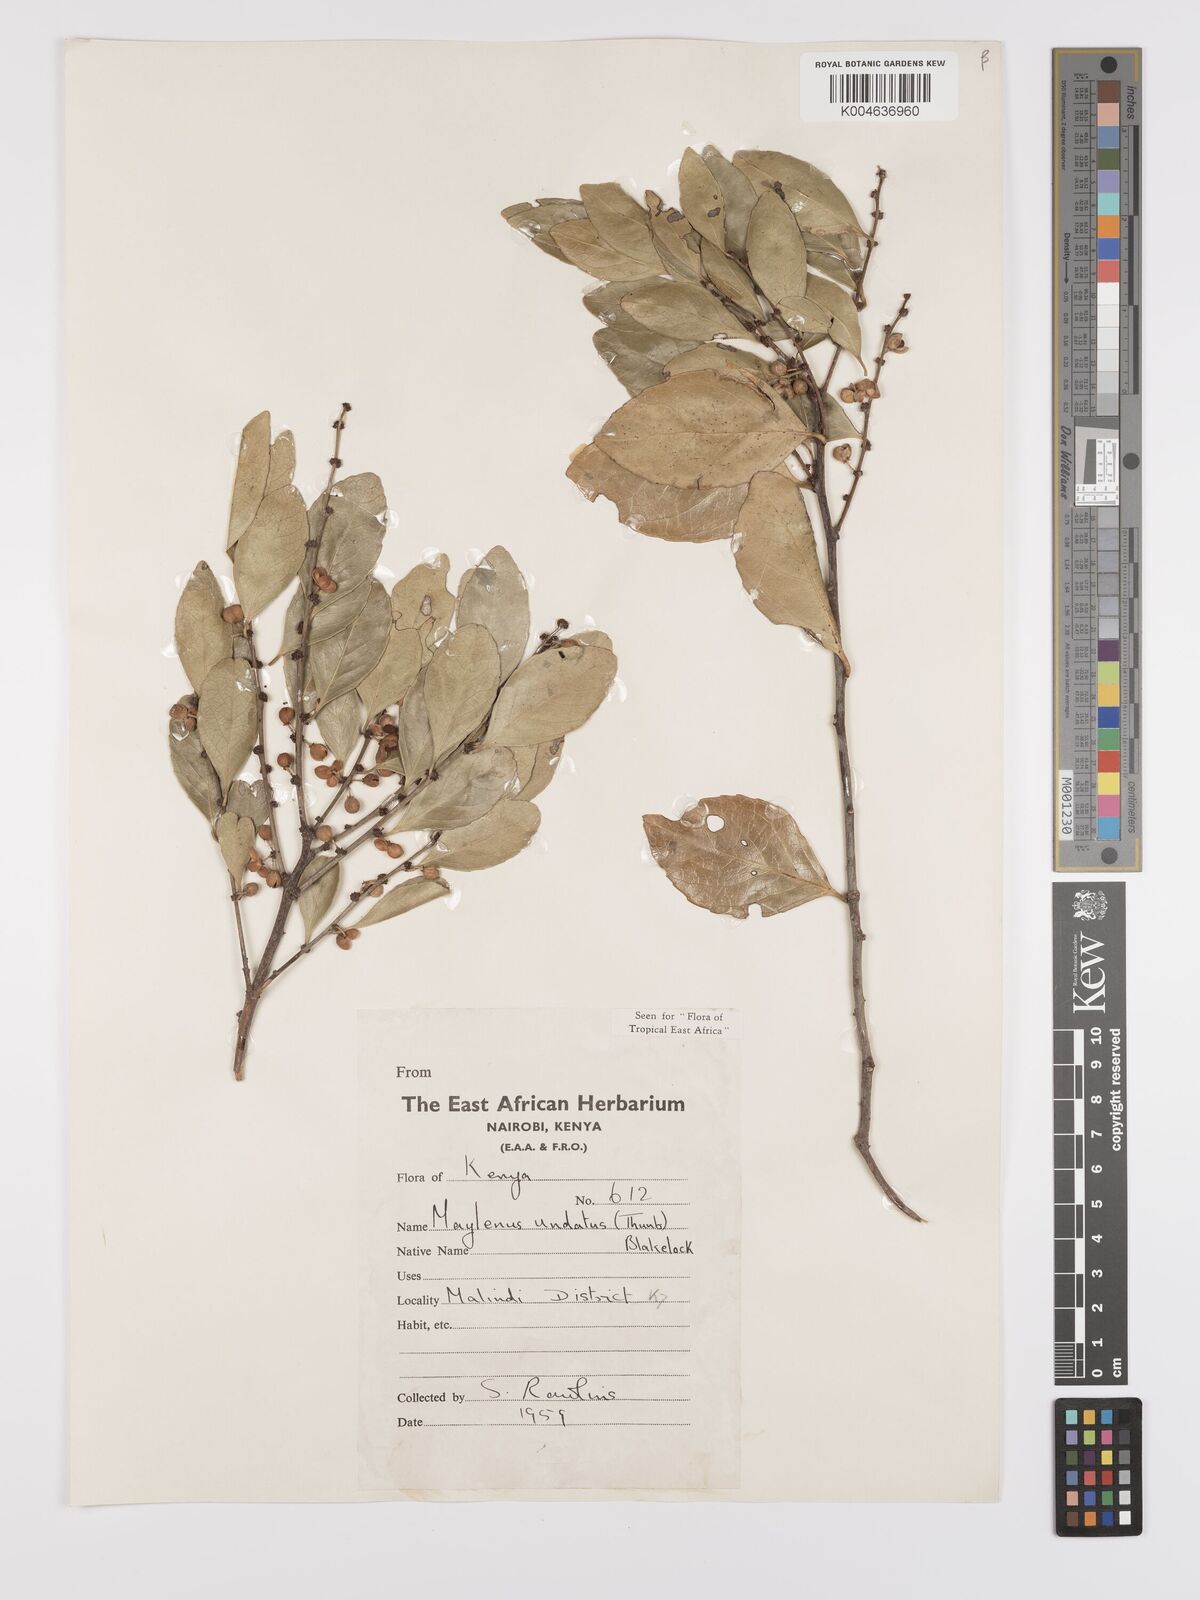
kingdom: Plantae
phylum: Tracheophyta
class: Magnoliopsida
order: Celastrales
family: Celastraceae
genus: Gymnosporia
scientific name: Gymnosporia undata
